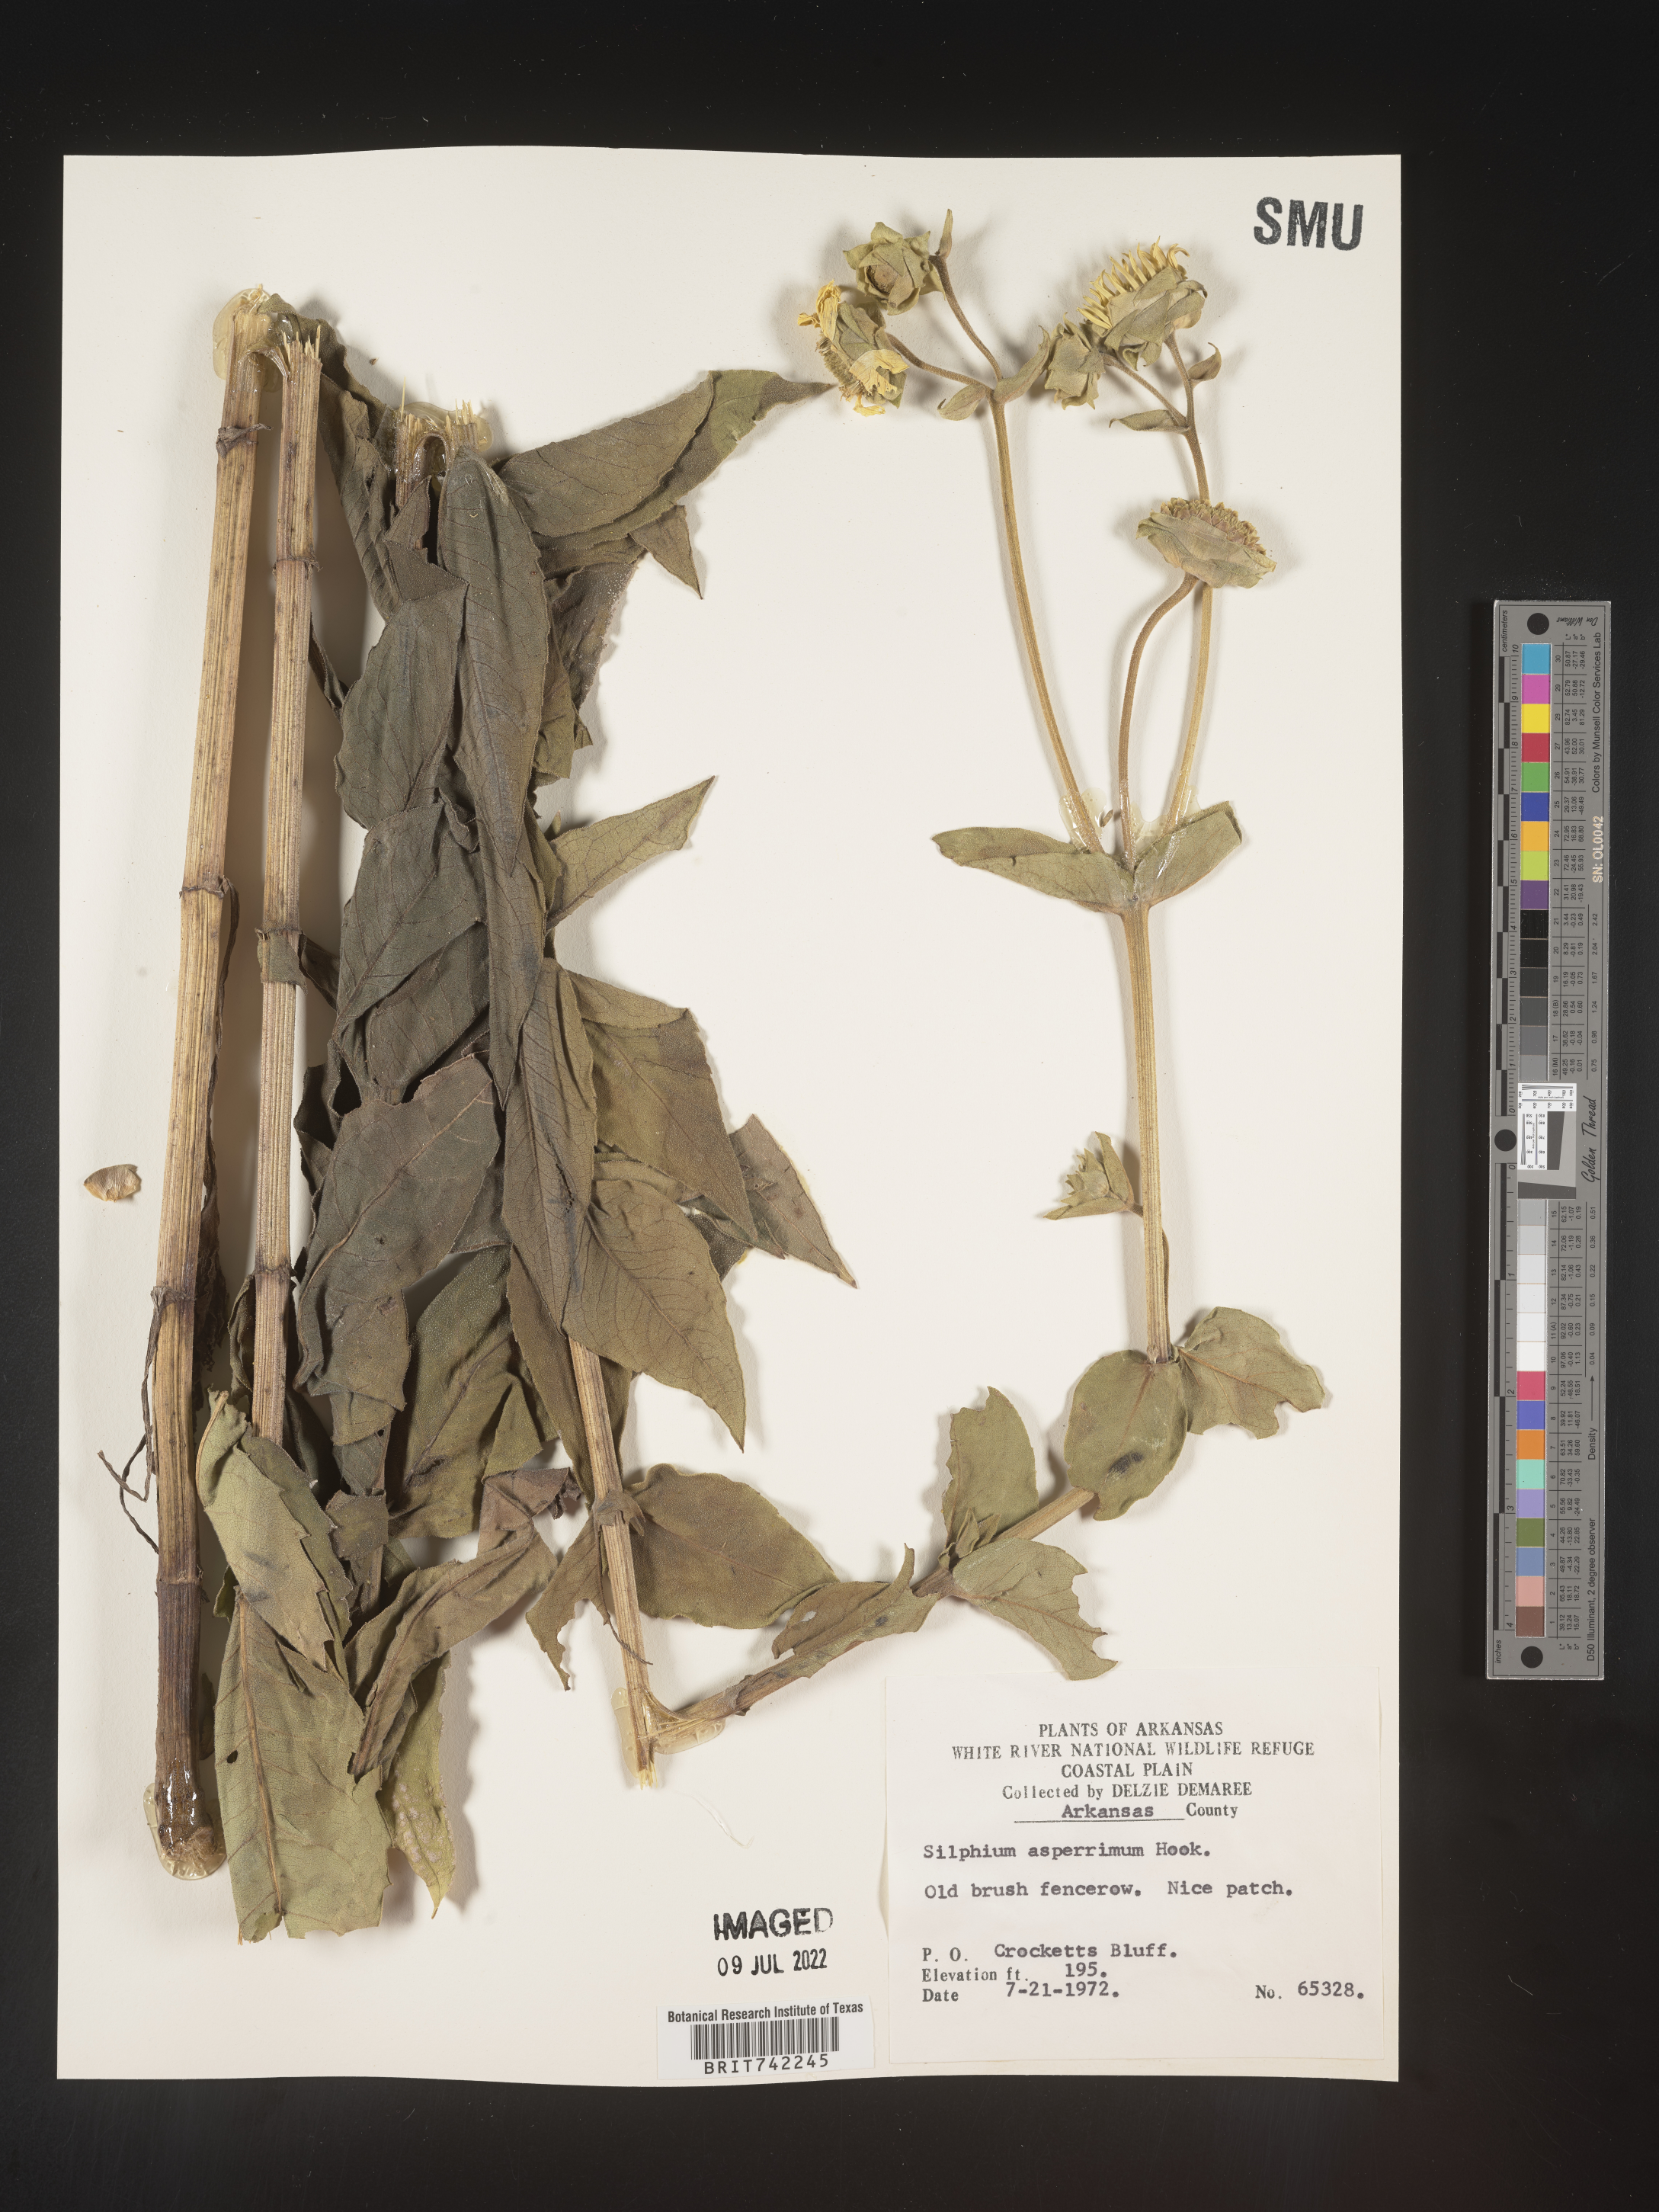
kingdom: Plantae
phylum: Tracheophyta
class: Magnoliopsida
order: Asterales
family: Asteraceae
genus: Silphium
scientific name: Silphium integrifolium
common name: Whole-leaf rosinweed
